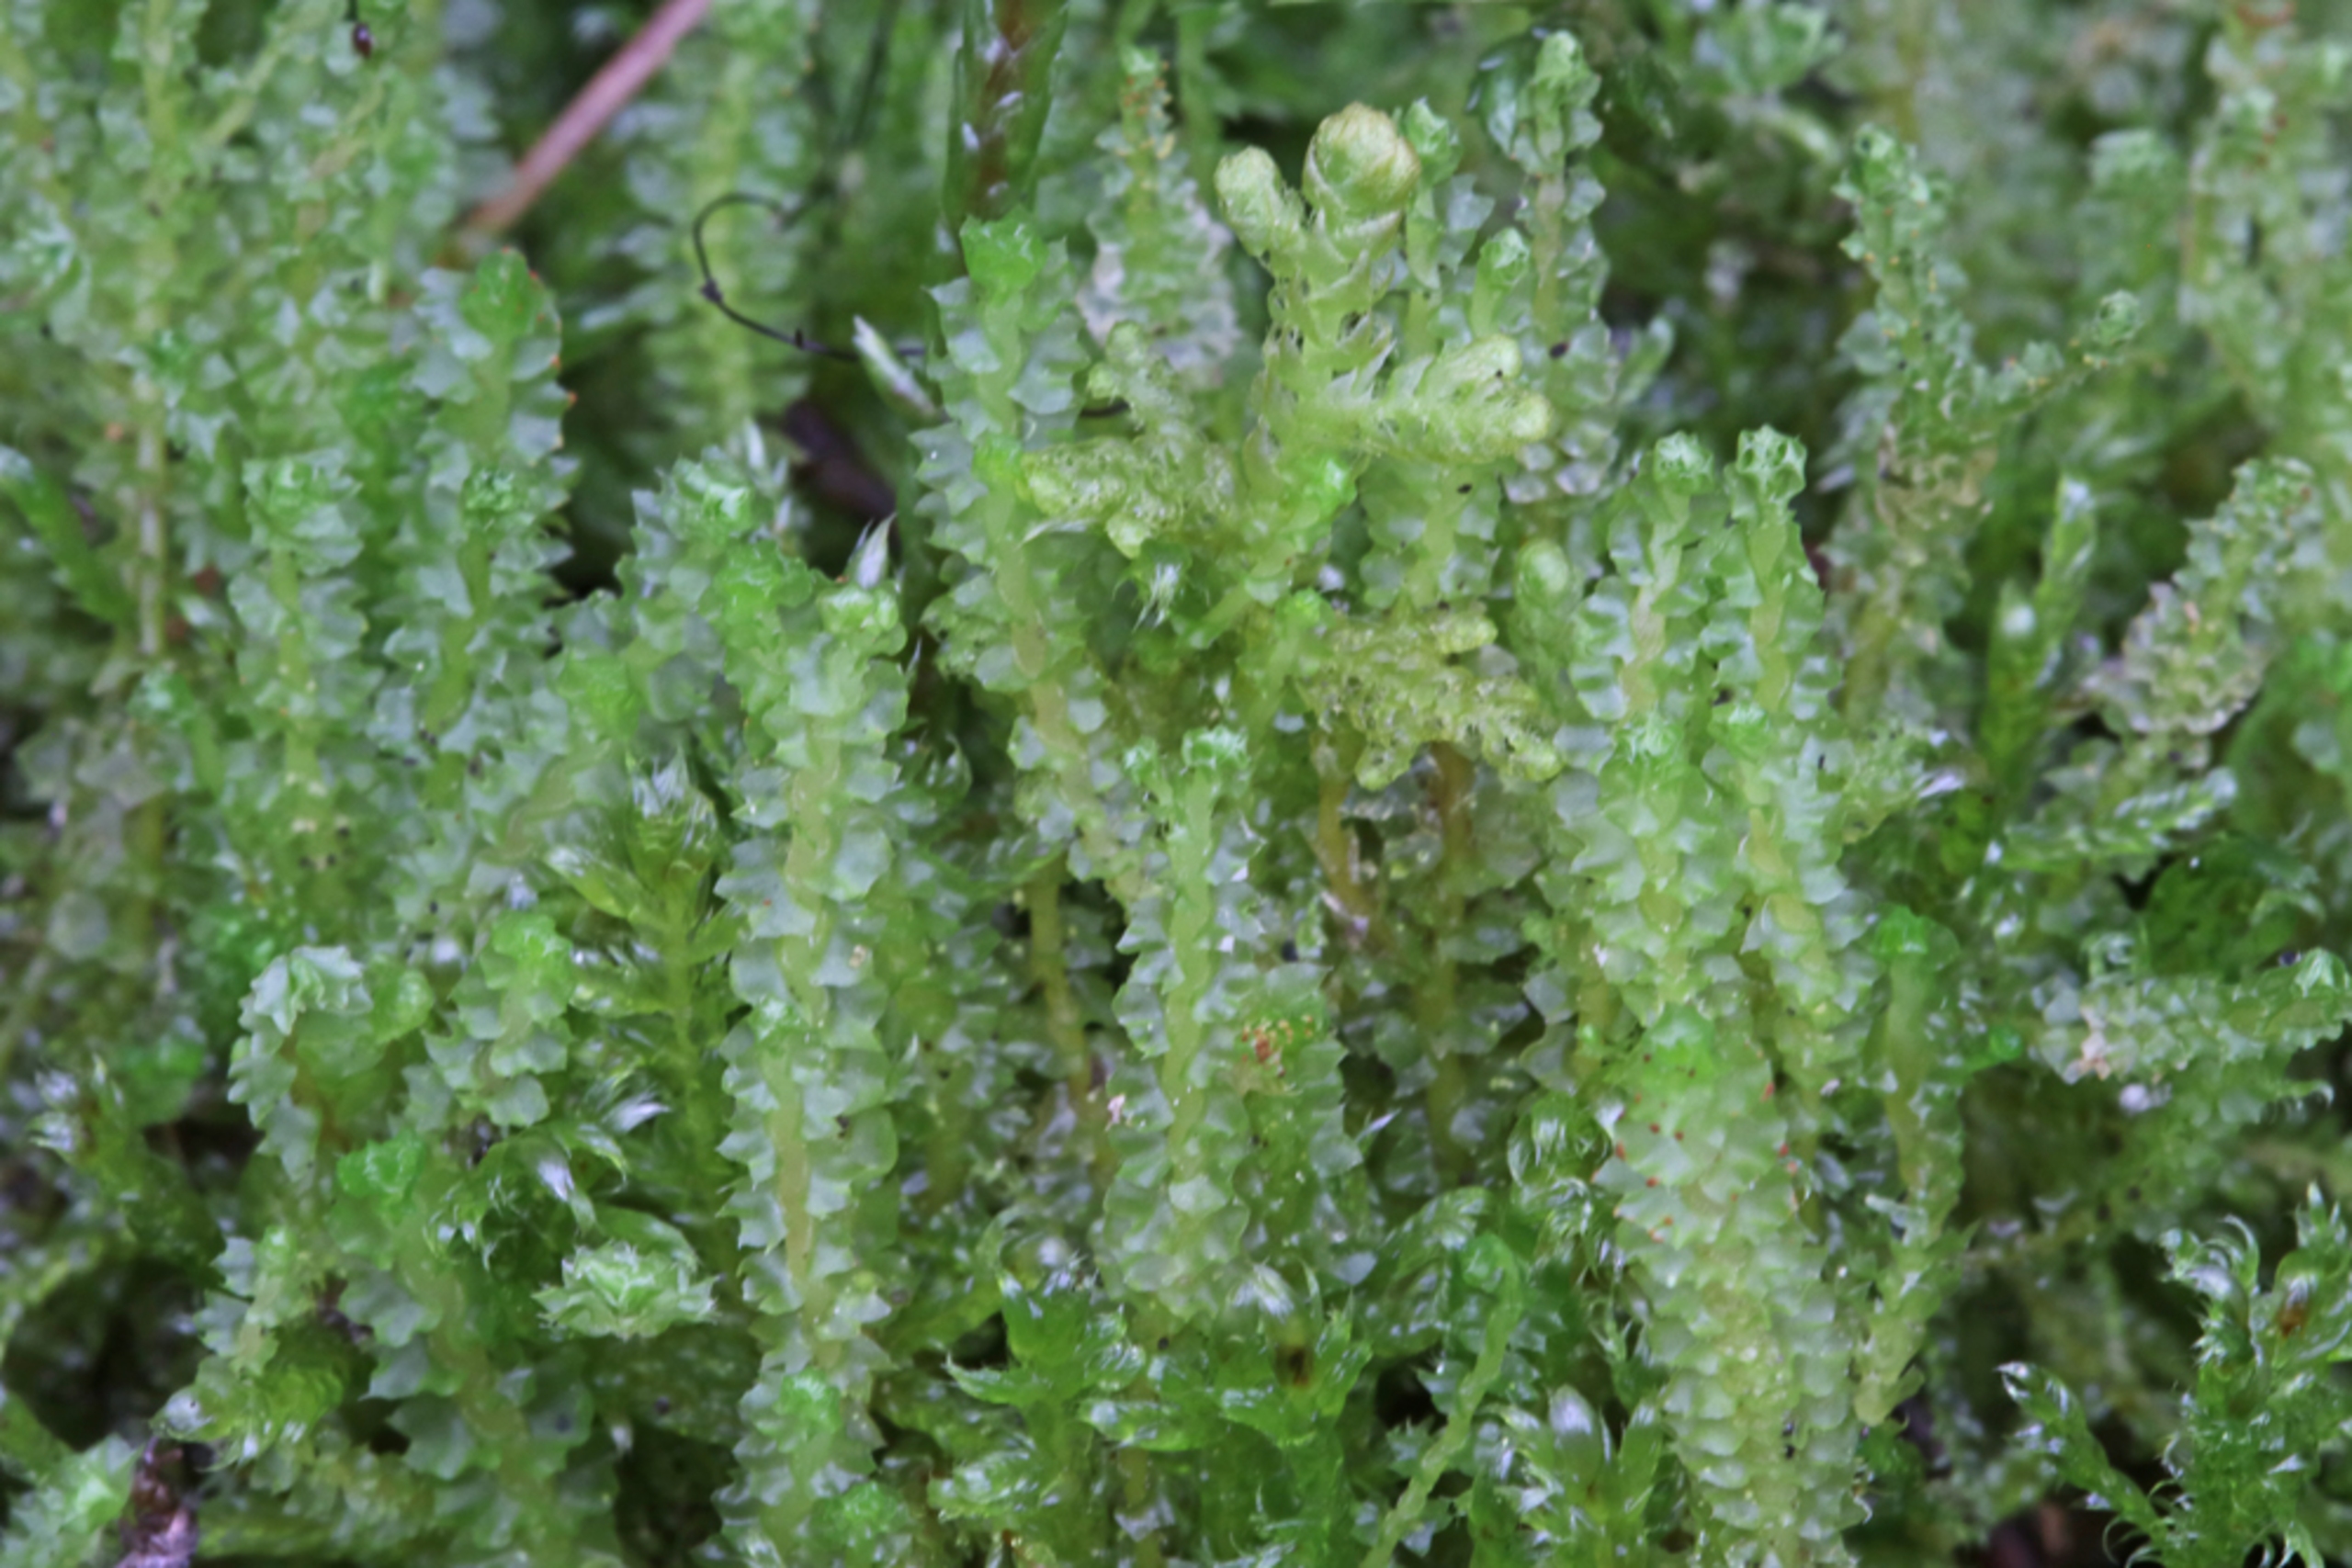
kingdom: Plantae
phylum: Marchantiophyta
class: Jungermanniopsida
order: Jungermanniales
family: Anastrophyllaceae
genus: Barbilophozia
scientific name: Barbilophozia hatcheri
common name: Spidsfliget flerfligmos
